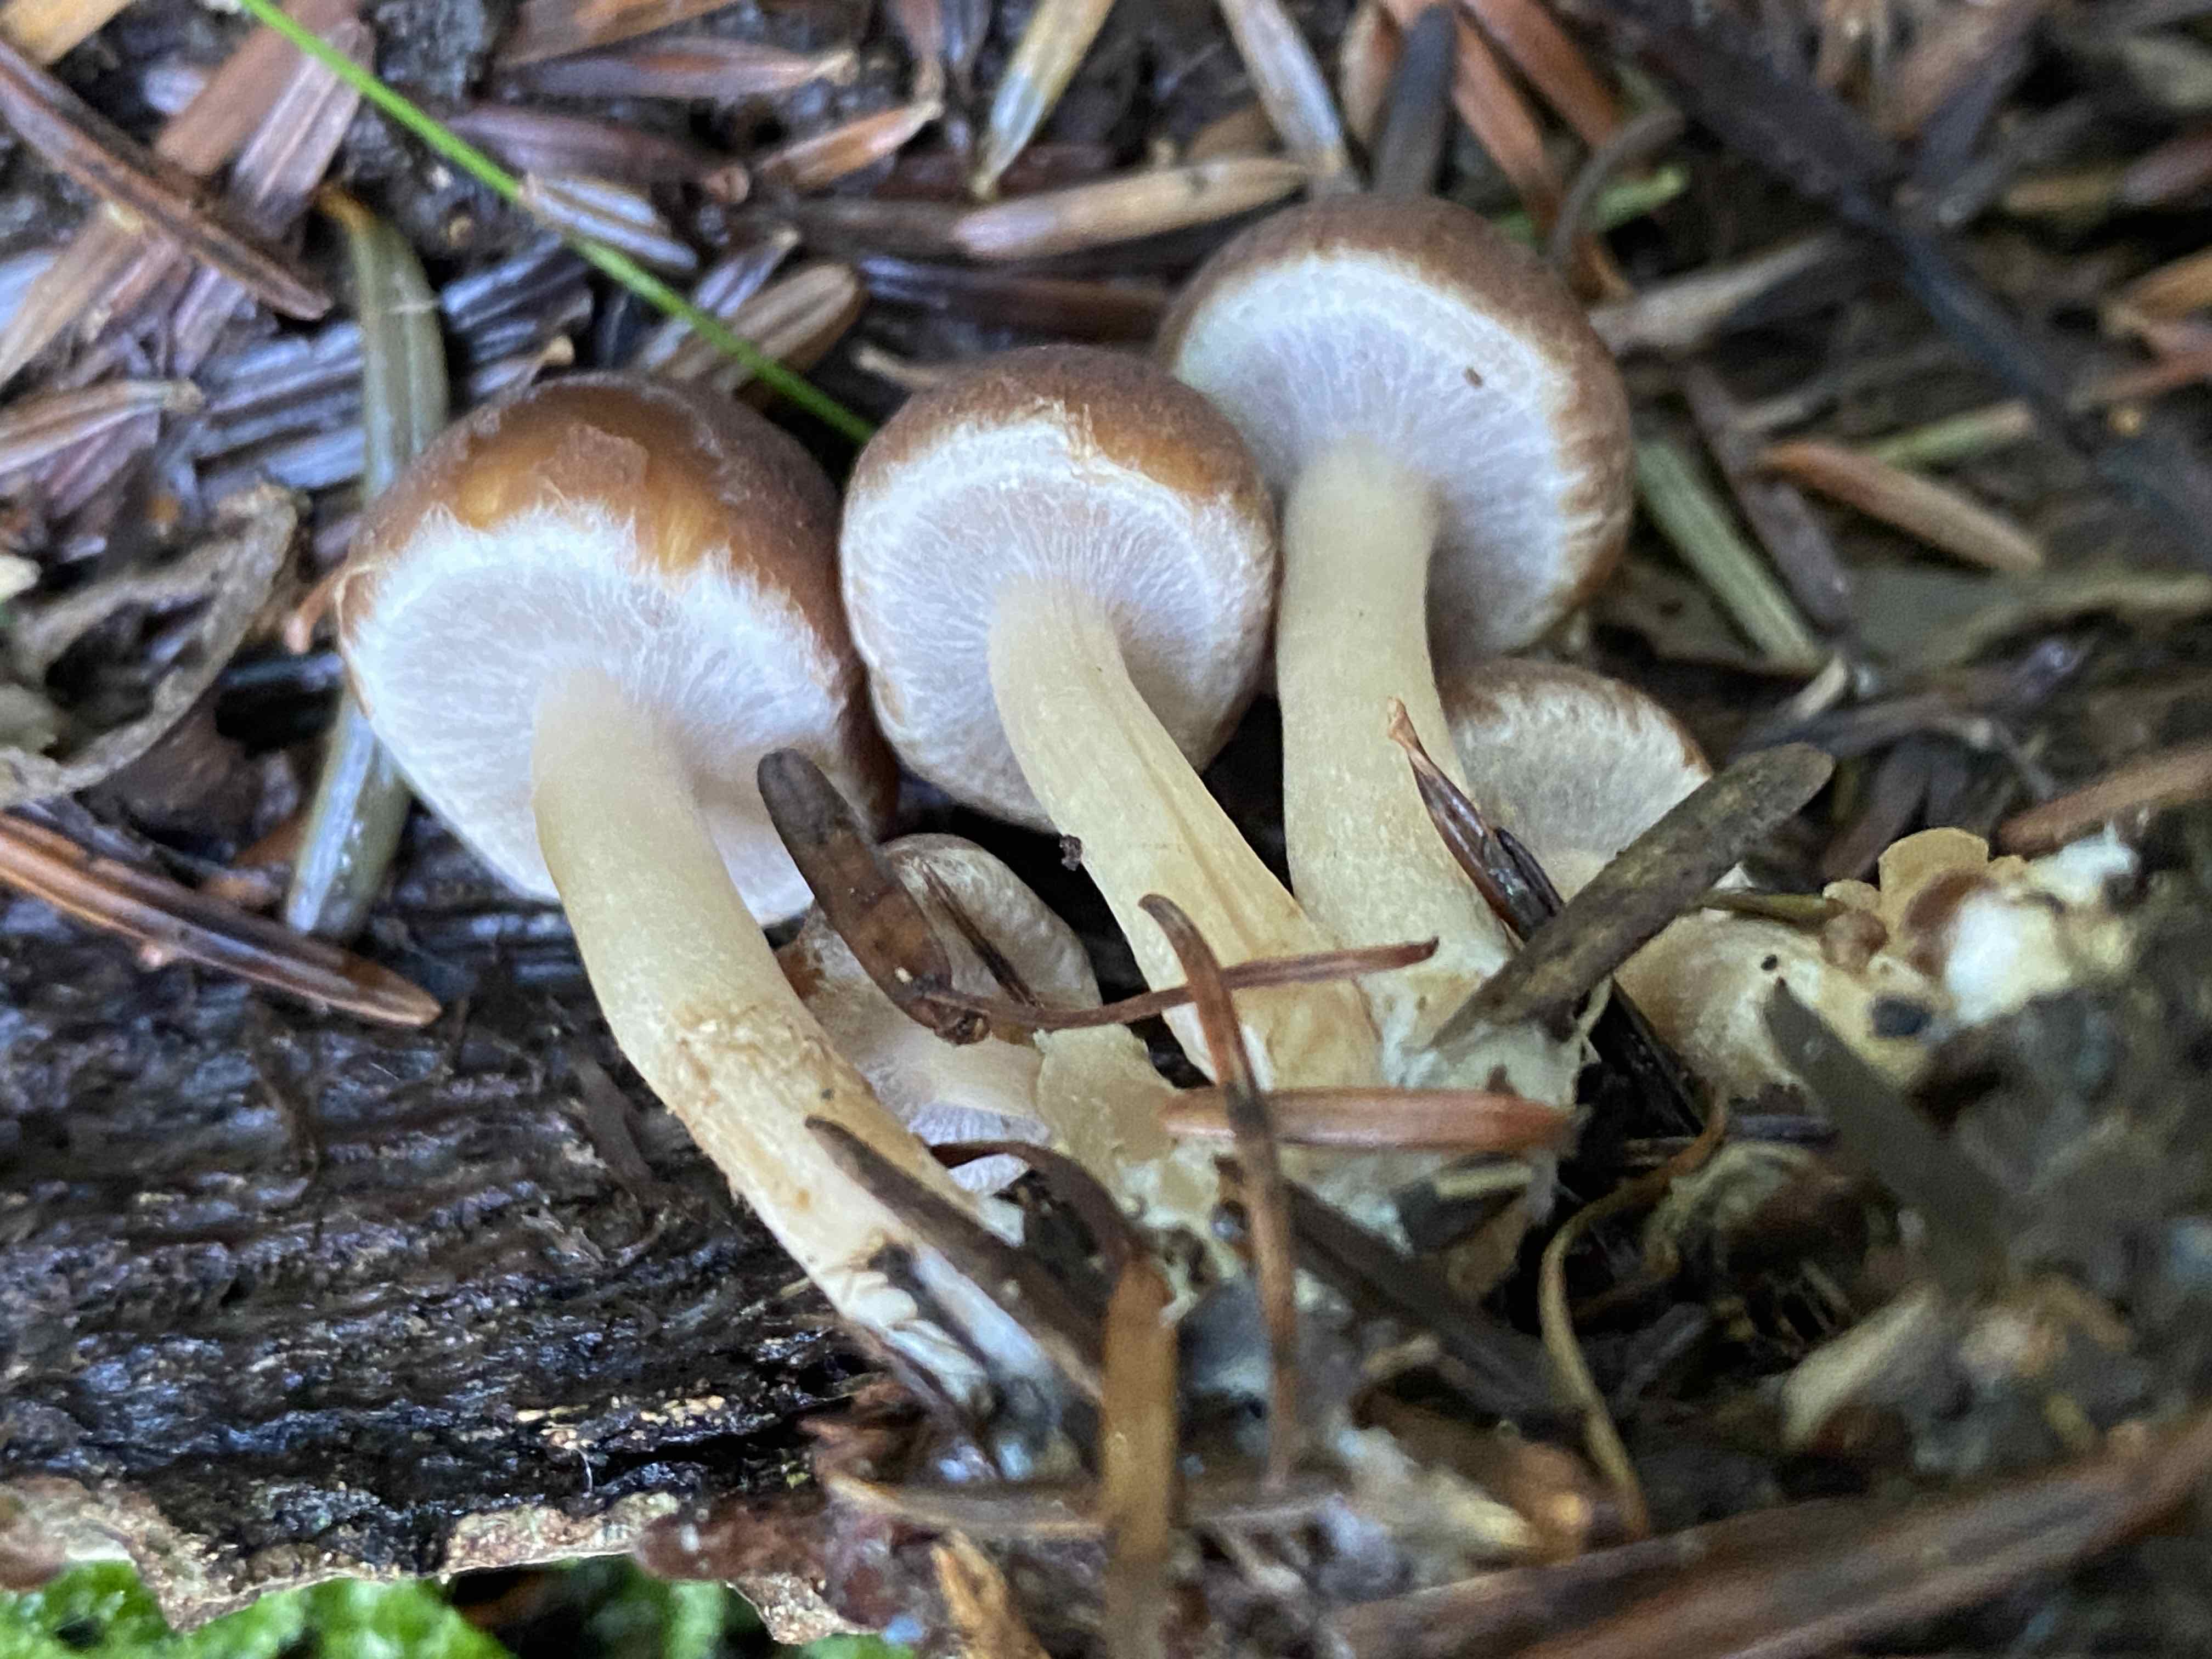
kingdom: Fungi
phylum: Basidiomycota
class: Agaricomycetes
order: Agaricales
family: Psathyrellaceae
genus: Psathyrella
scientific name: Psathyrella
